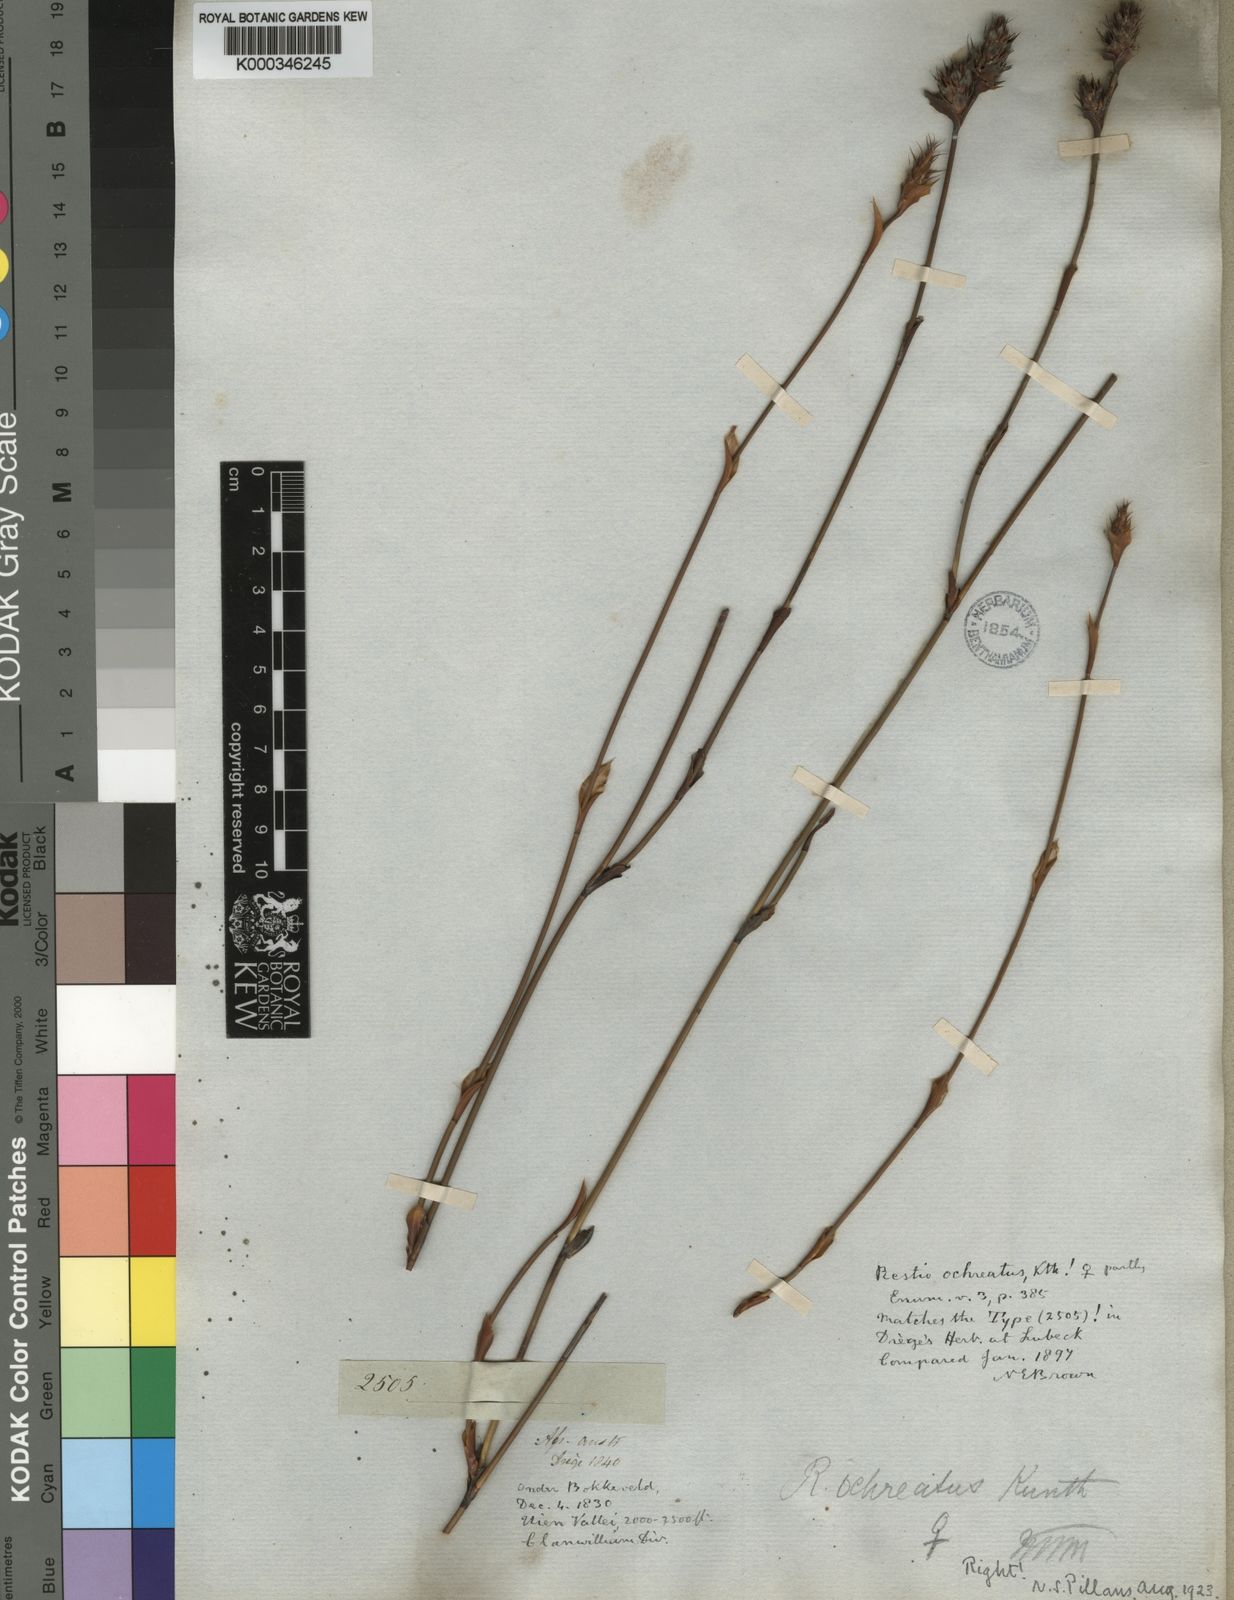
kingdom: Plantae
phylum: Tracheophyta
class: Liliopsida
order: Poales
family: Restionaceae
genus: Restio
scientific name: Restio ocreatus
